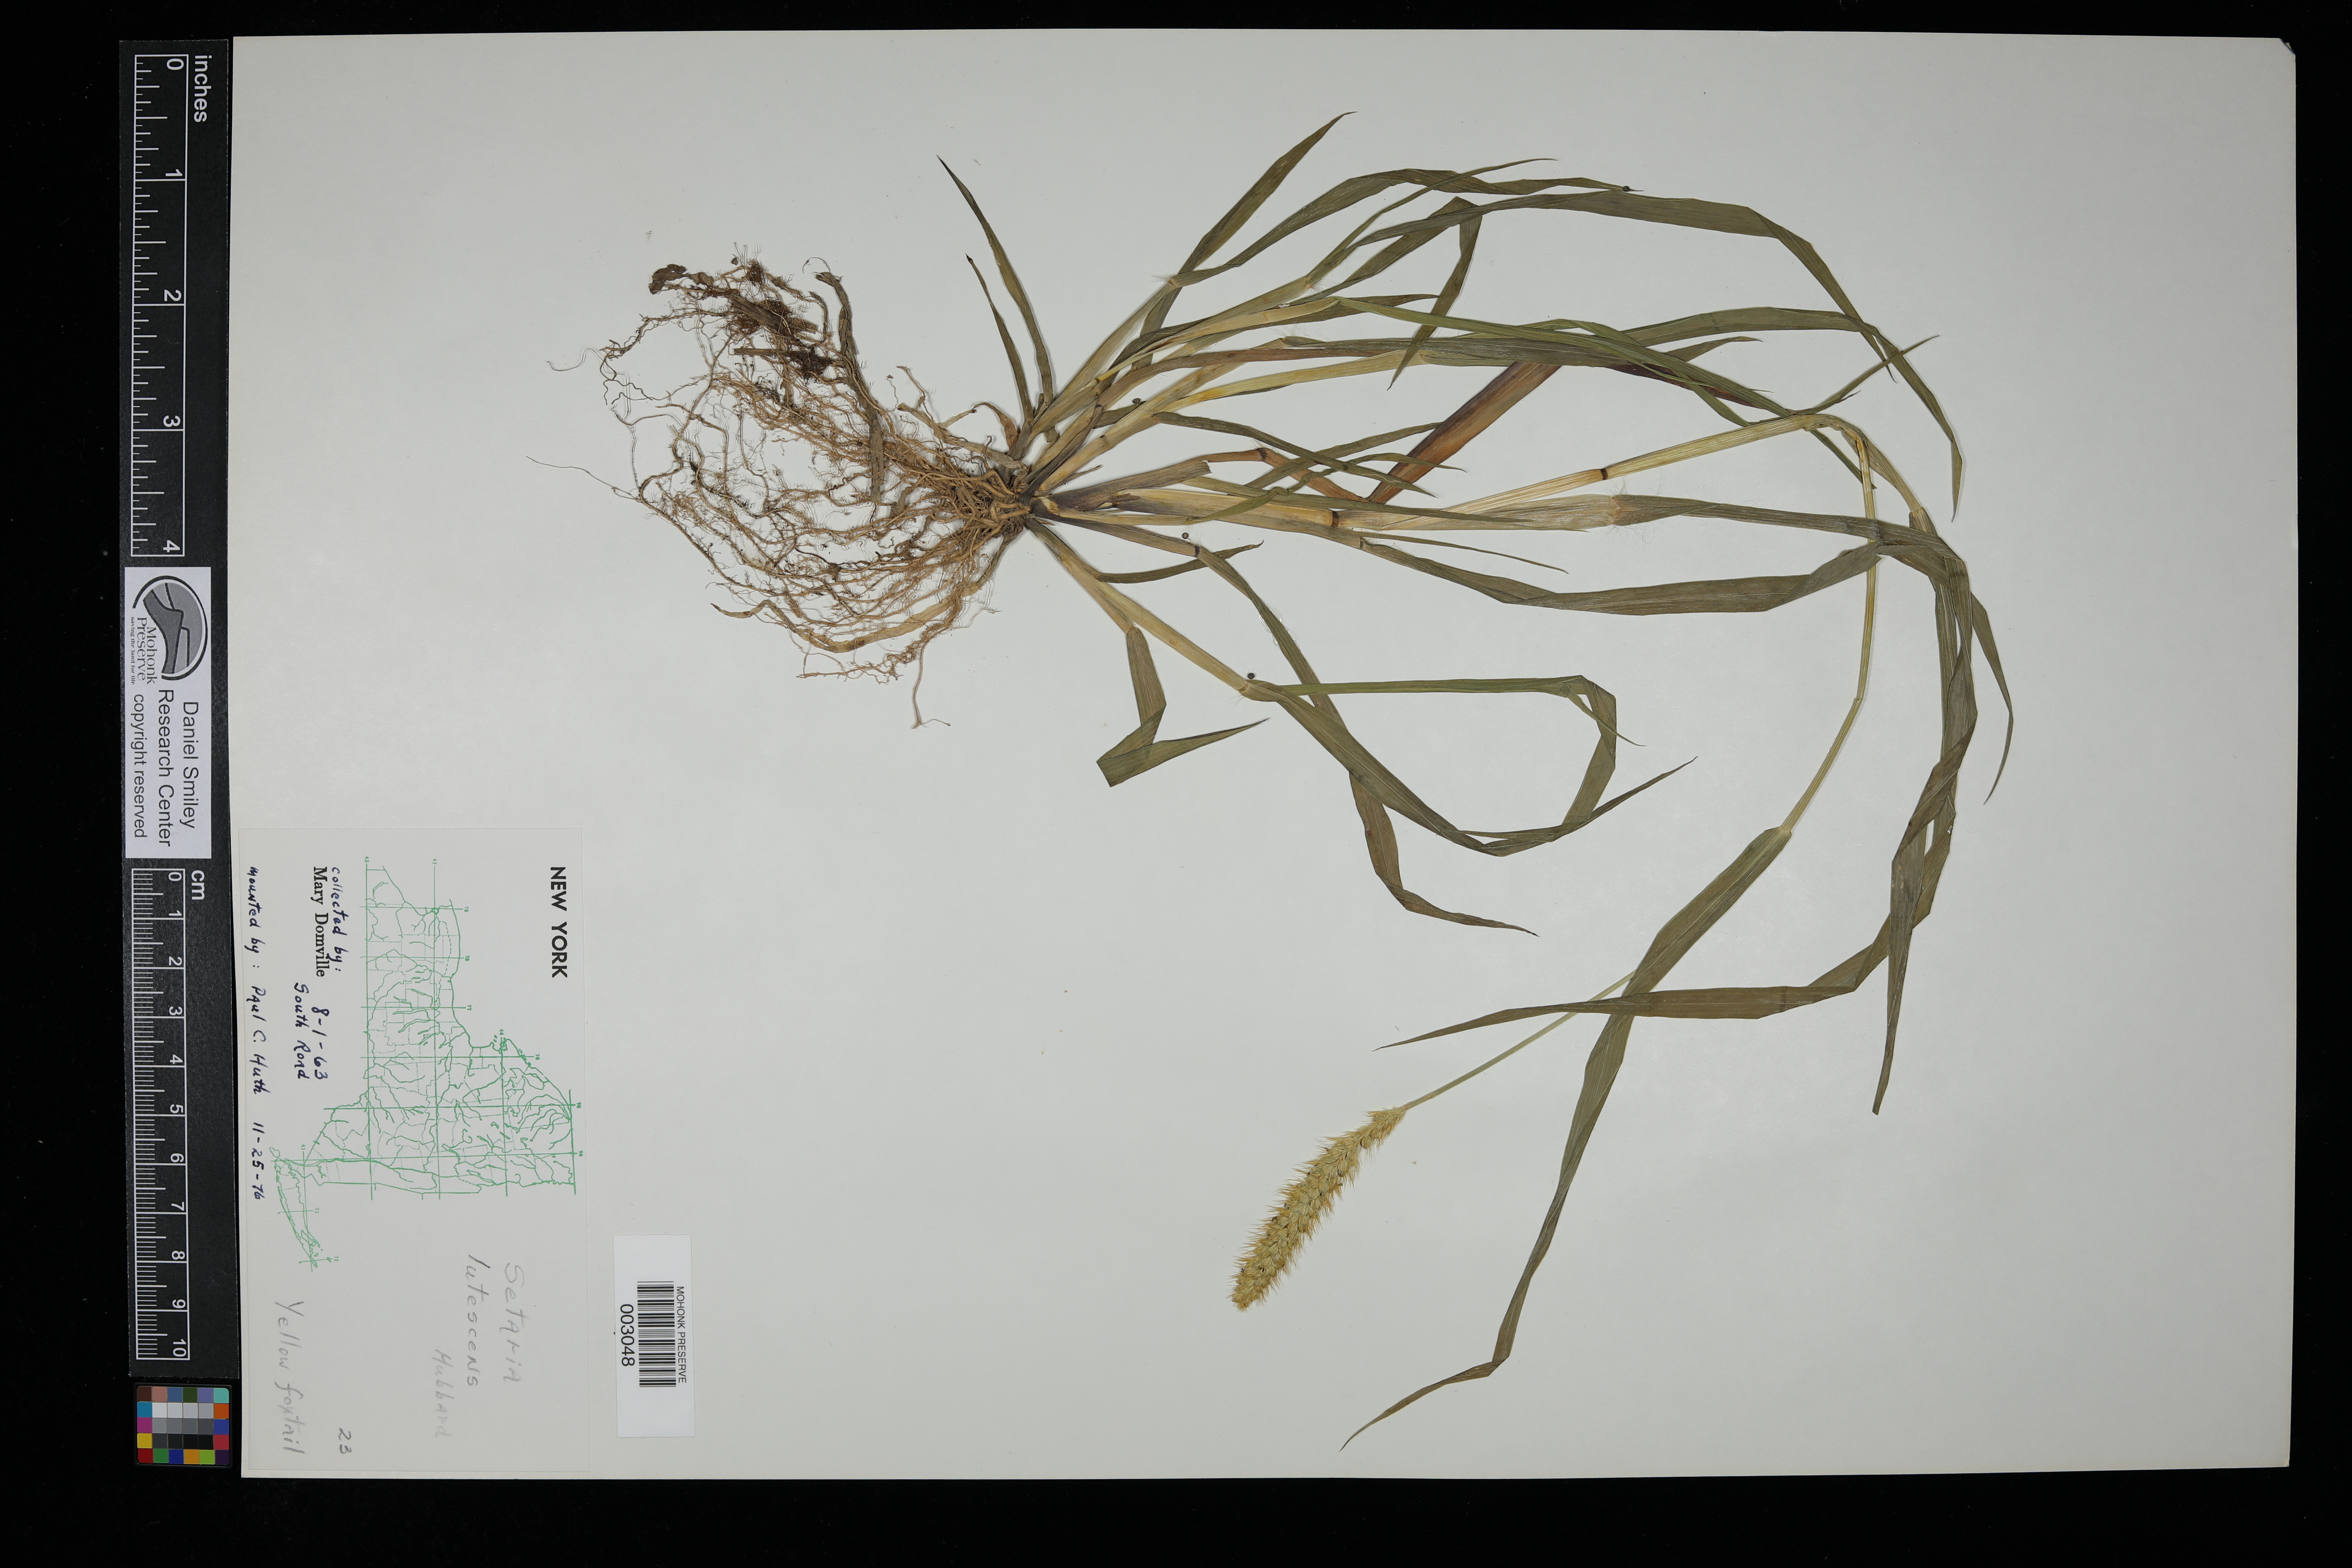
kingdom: Plantae
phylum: Tracheophyta
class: Liliopsida
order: Poales
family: Poaceae
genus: Cenchrus
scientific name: Cenchrus americanus
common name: Pearl millet
